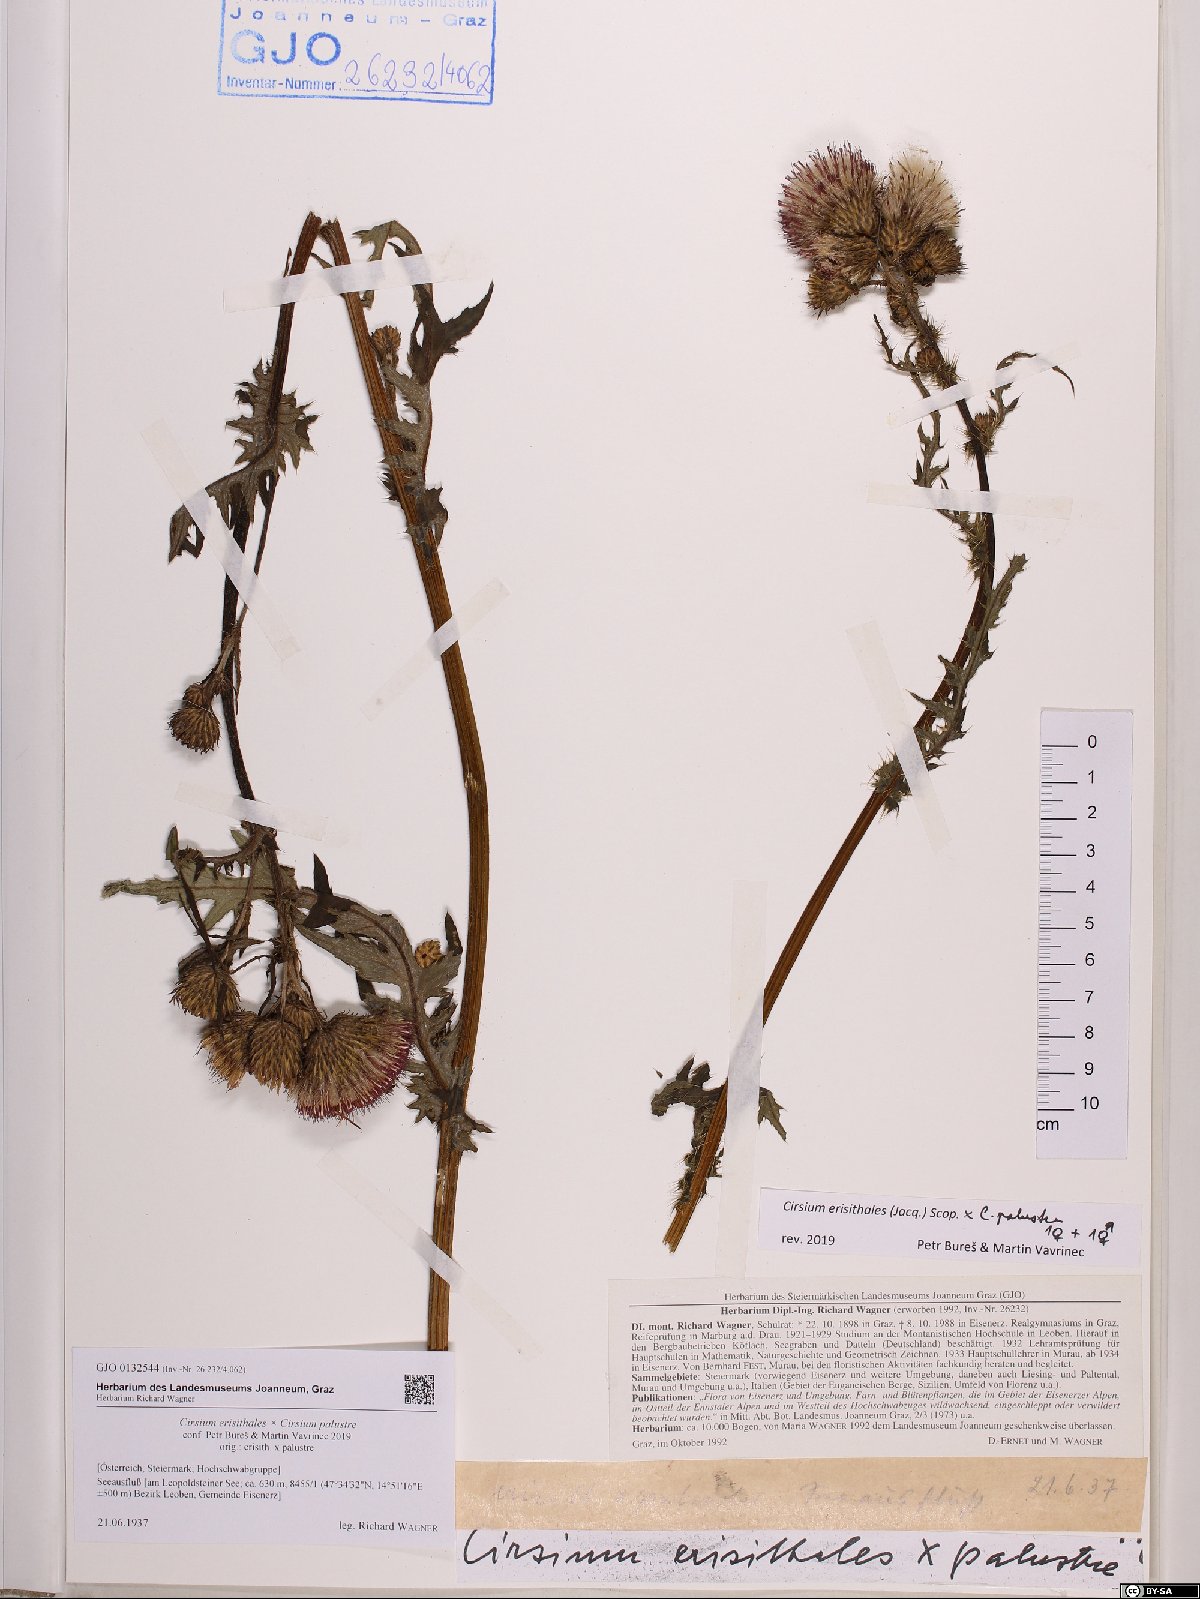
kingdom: Plantae
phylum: Tracheophyta
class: Magnoliopsida
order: Asterales
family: Asteraceae
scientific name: Asteraceae
